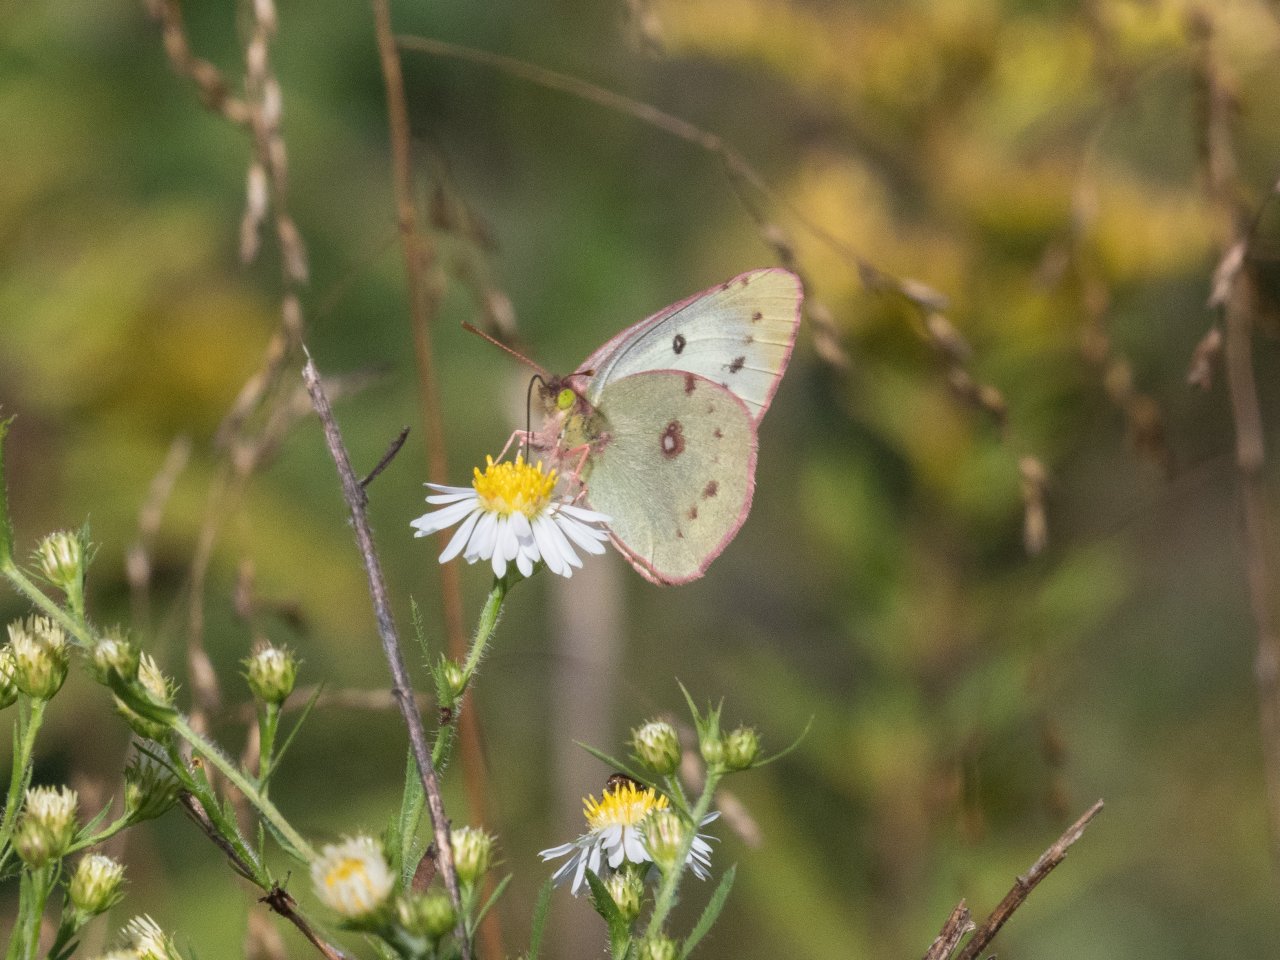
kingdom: Animalia
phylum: Arthropoda
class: Insecta
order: Lepidoptera
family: Pieridae
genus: Colias
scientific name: Colias
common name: Clouded Yellows
